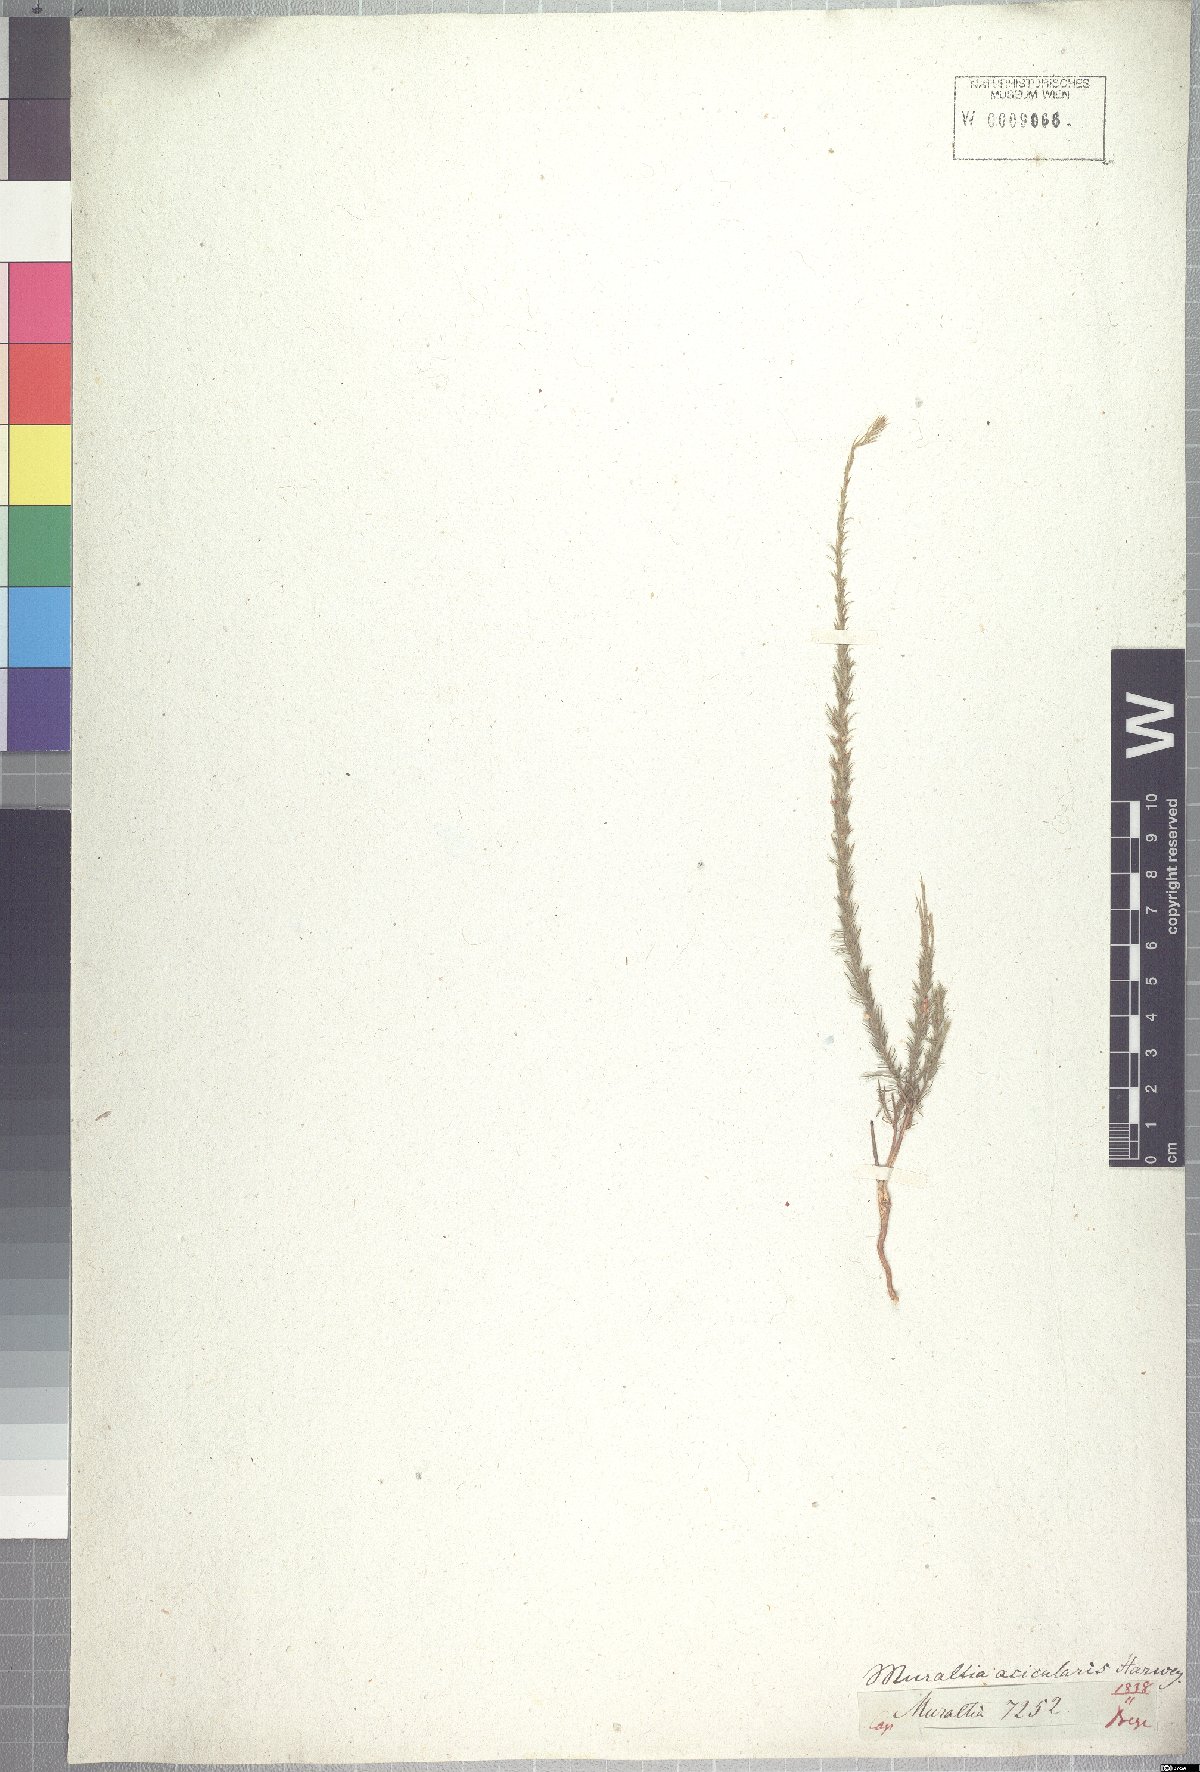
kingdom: Plantae
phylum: Tracheophyta
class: Magnoliopsida
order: Fabales
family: Polygalaceae
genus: Muraltia
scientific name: Muraltia acicularis
